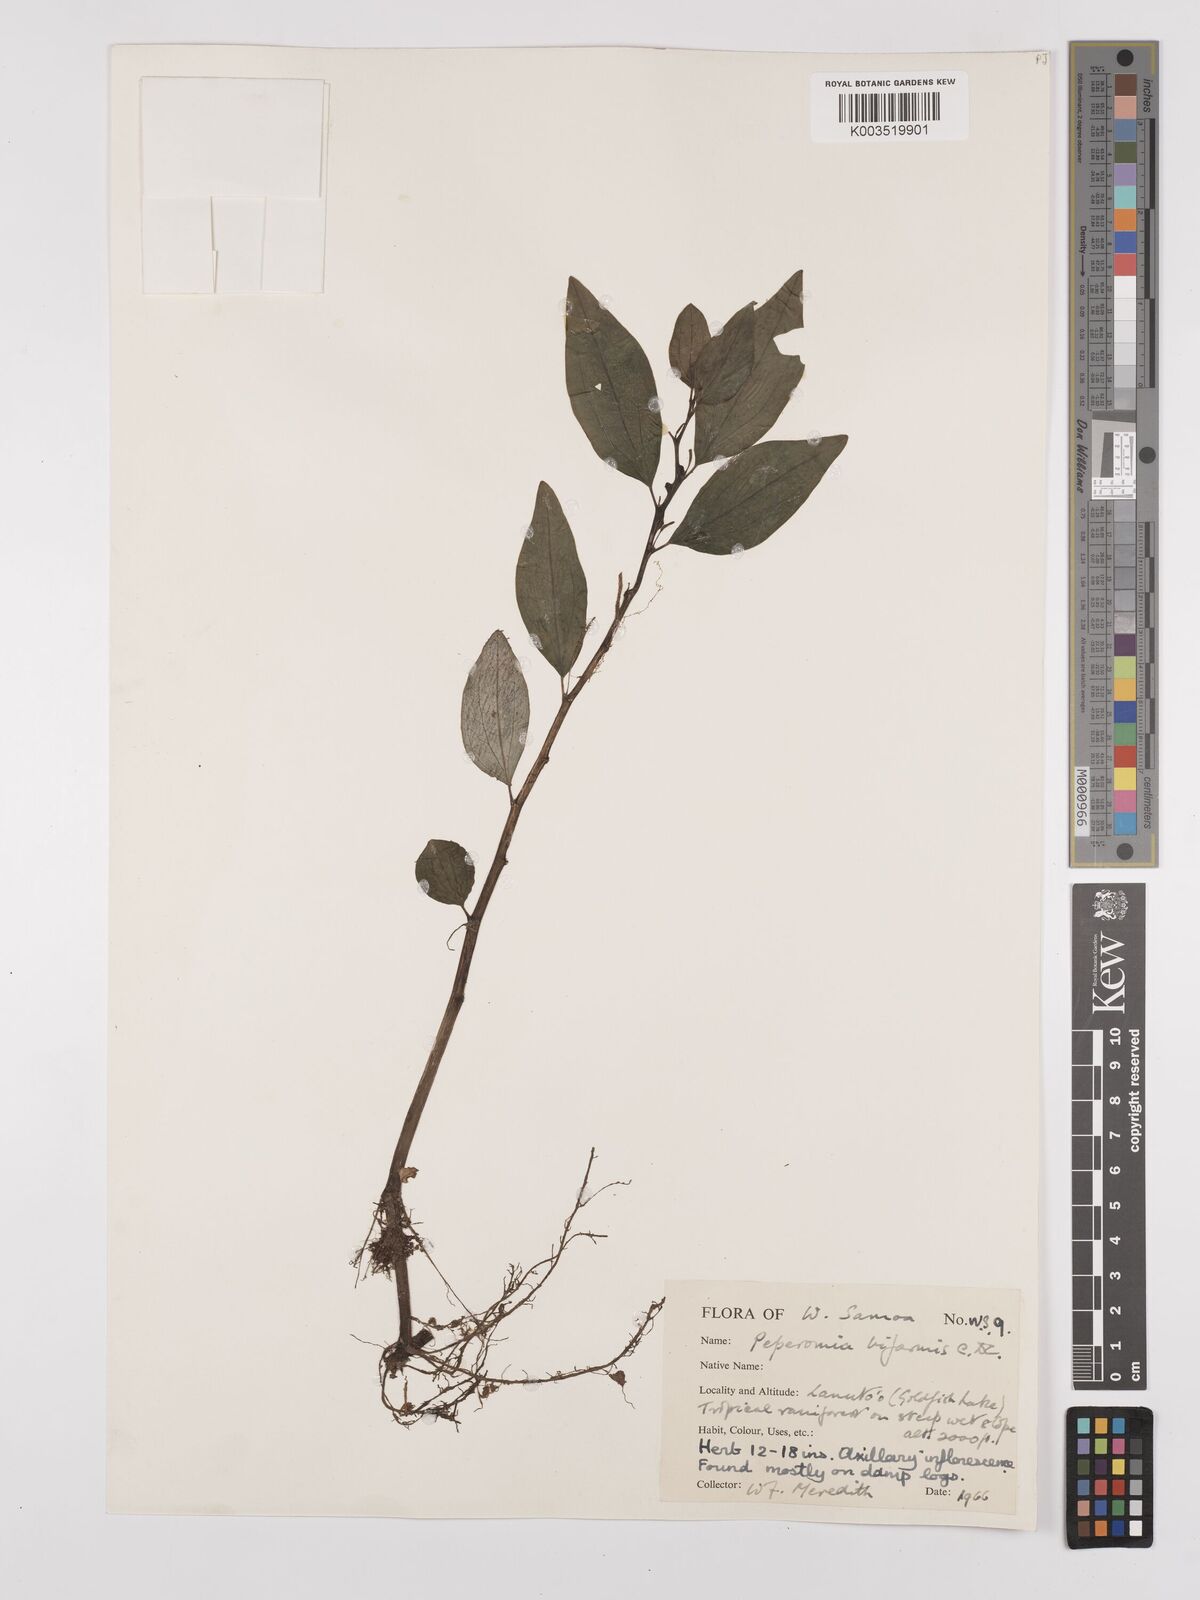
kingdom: Plantae
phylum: Tracheophyta
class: Magnoliopsida
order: Piperales
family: Piperaceae
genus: Peperomia
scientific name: Peperomia biformis
